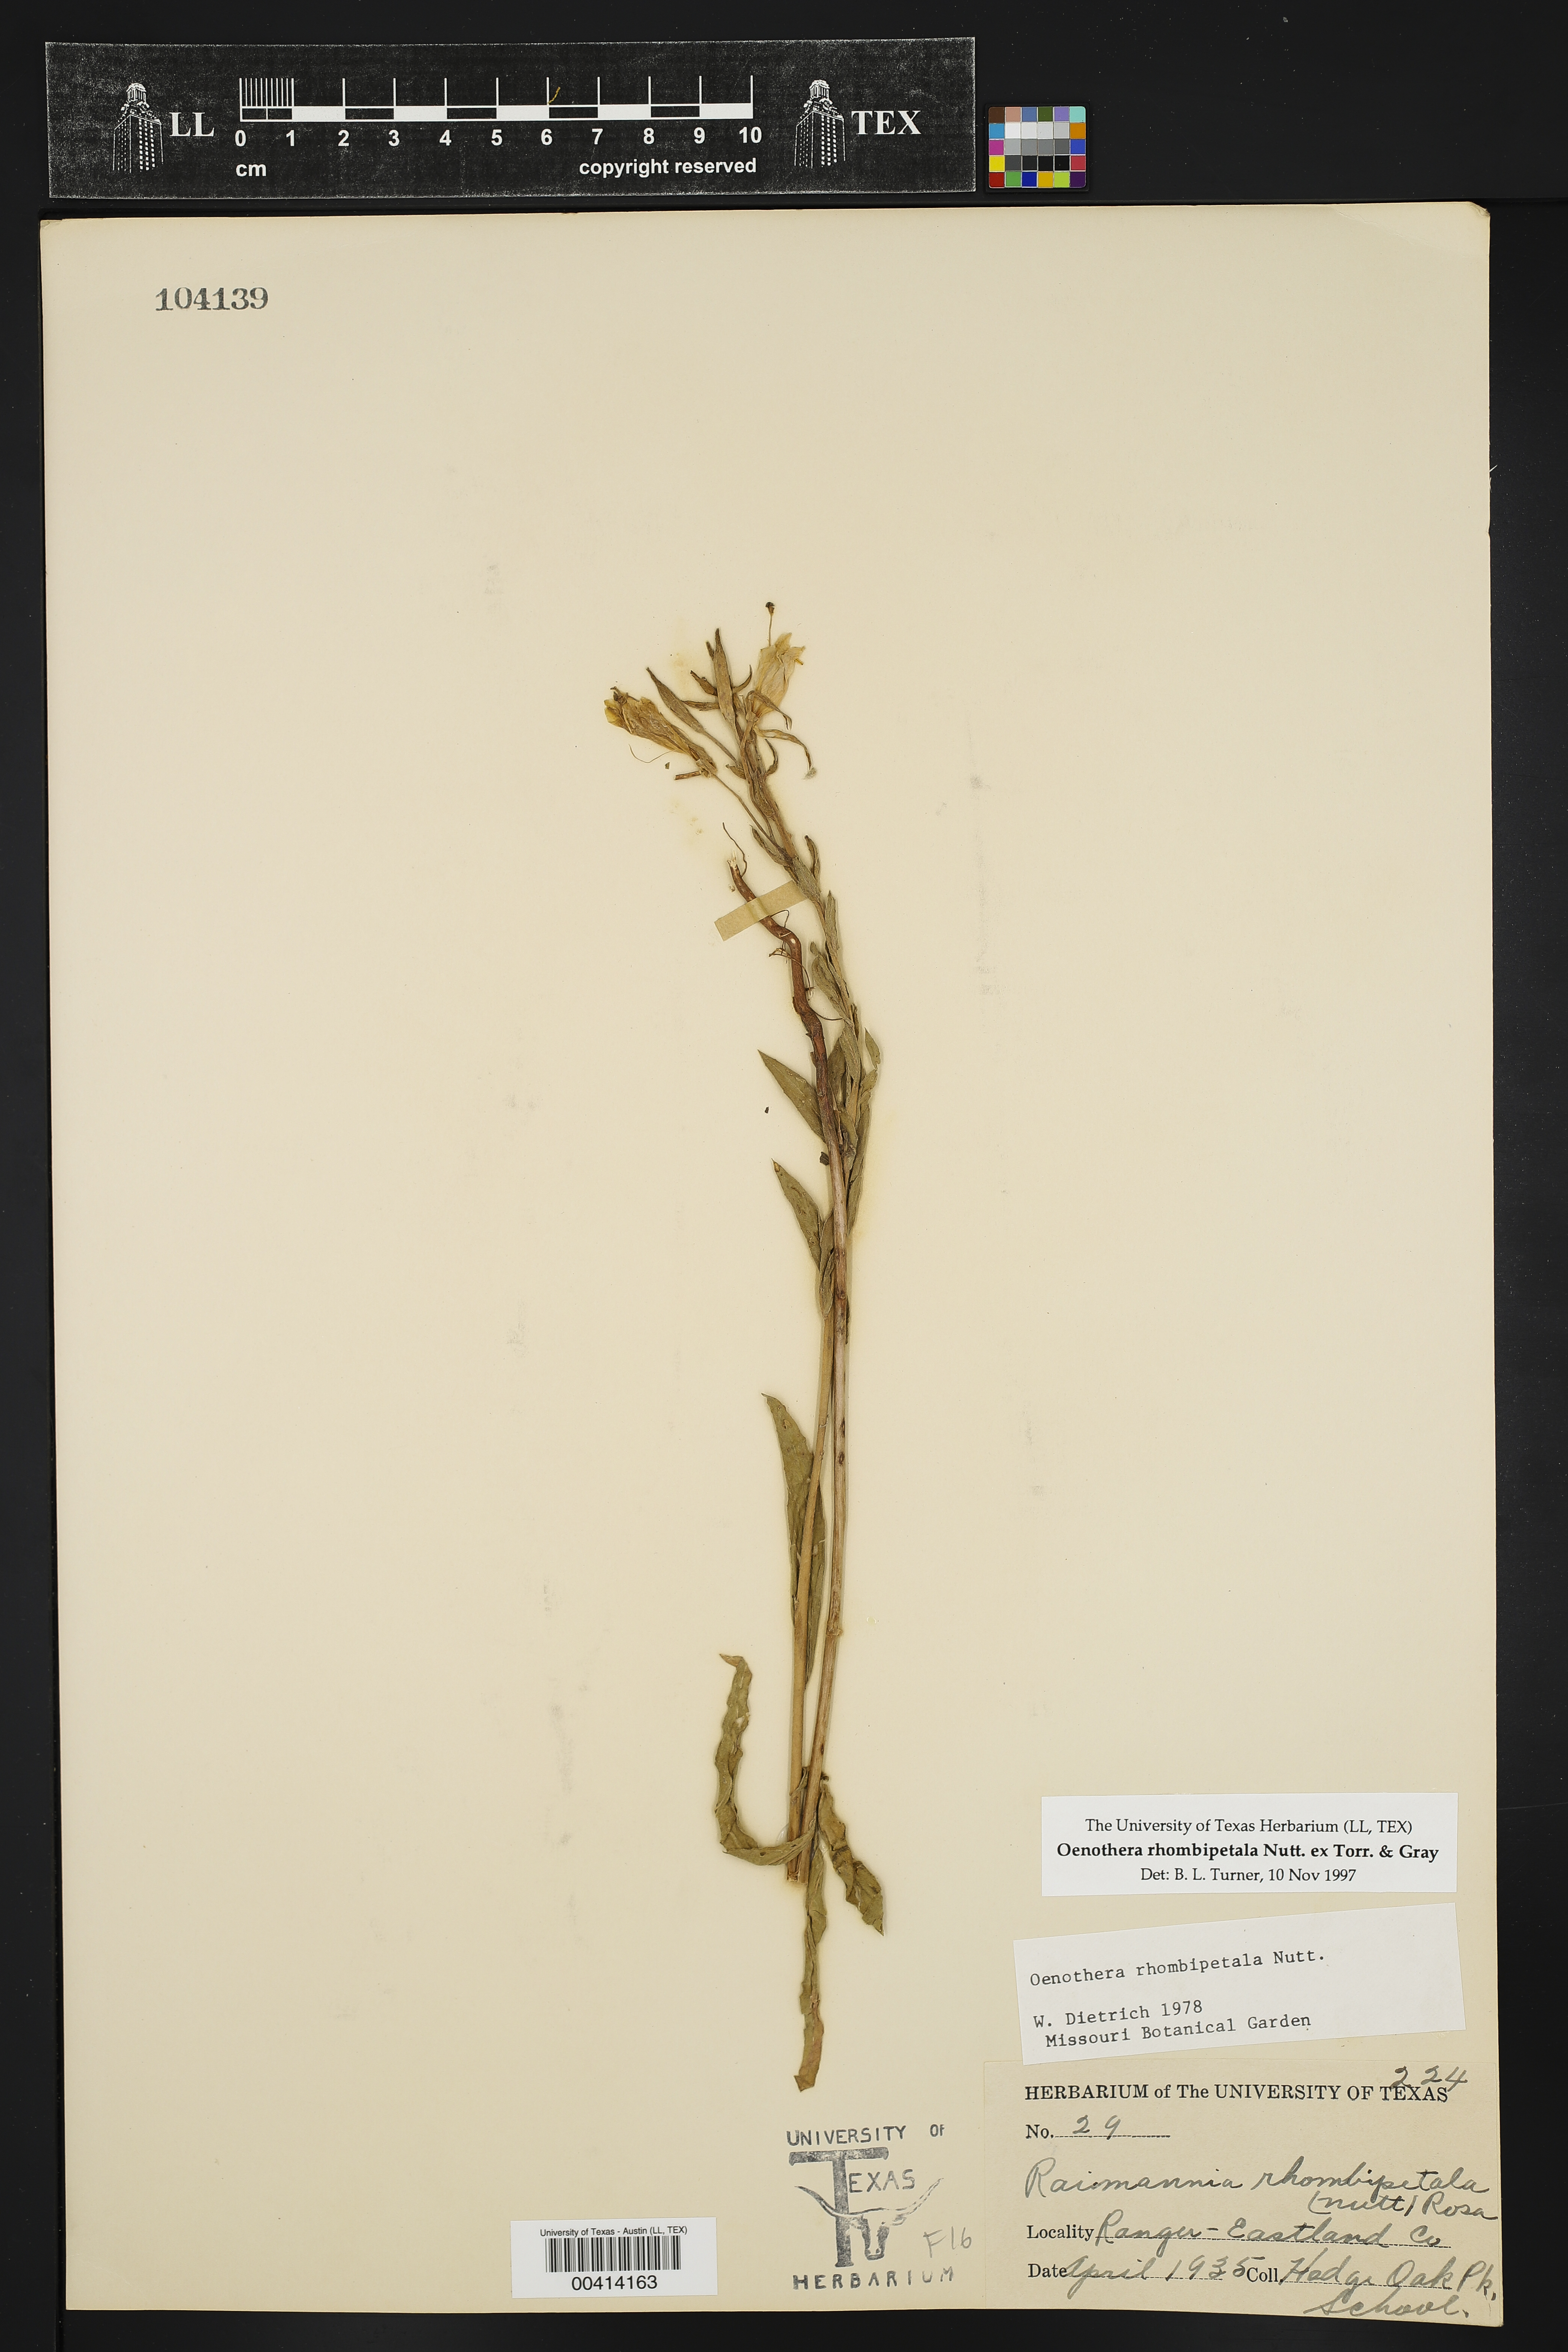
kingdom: Plantae
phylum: Tracheophyta
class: Magnoliopsida
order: Myrtales
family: Onagraceae
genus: Oenothera
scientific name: Oenothera rhombipetala
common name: Four-points evening-primrose
